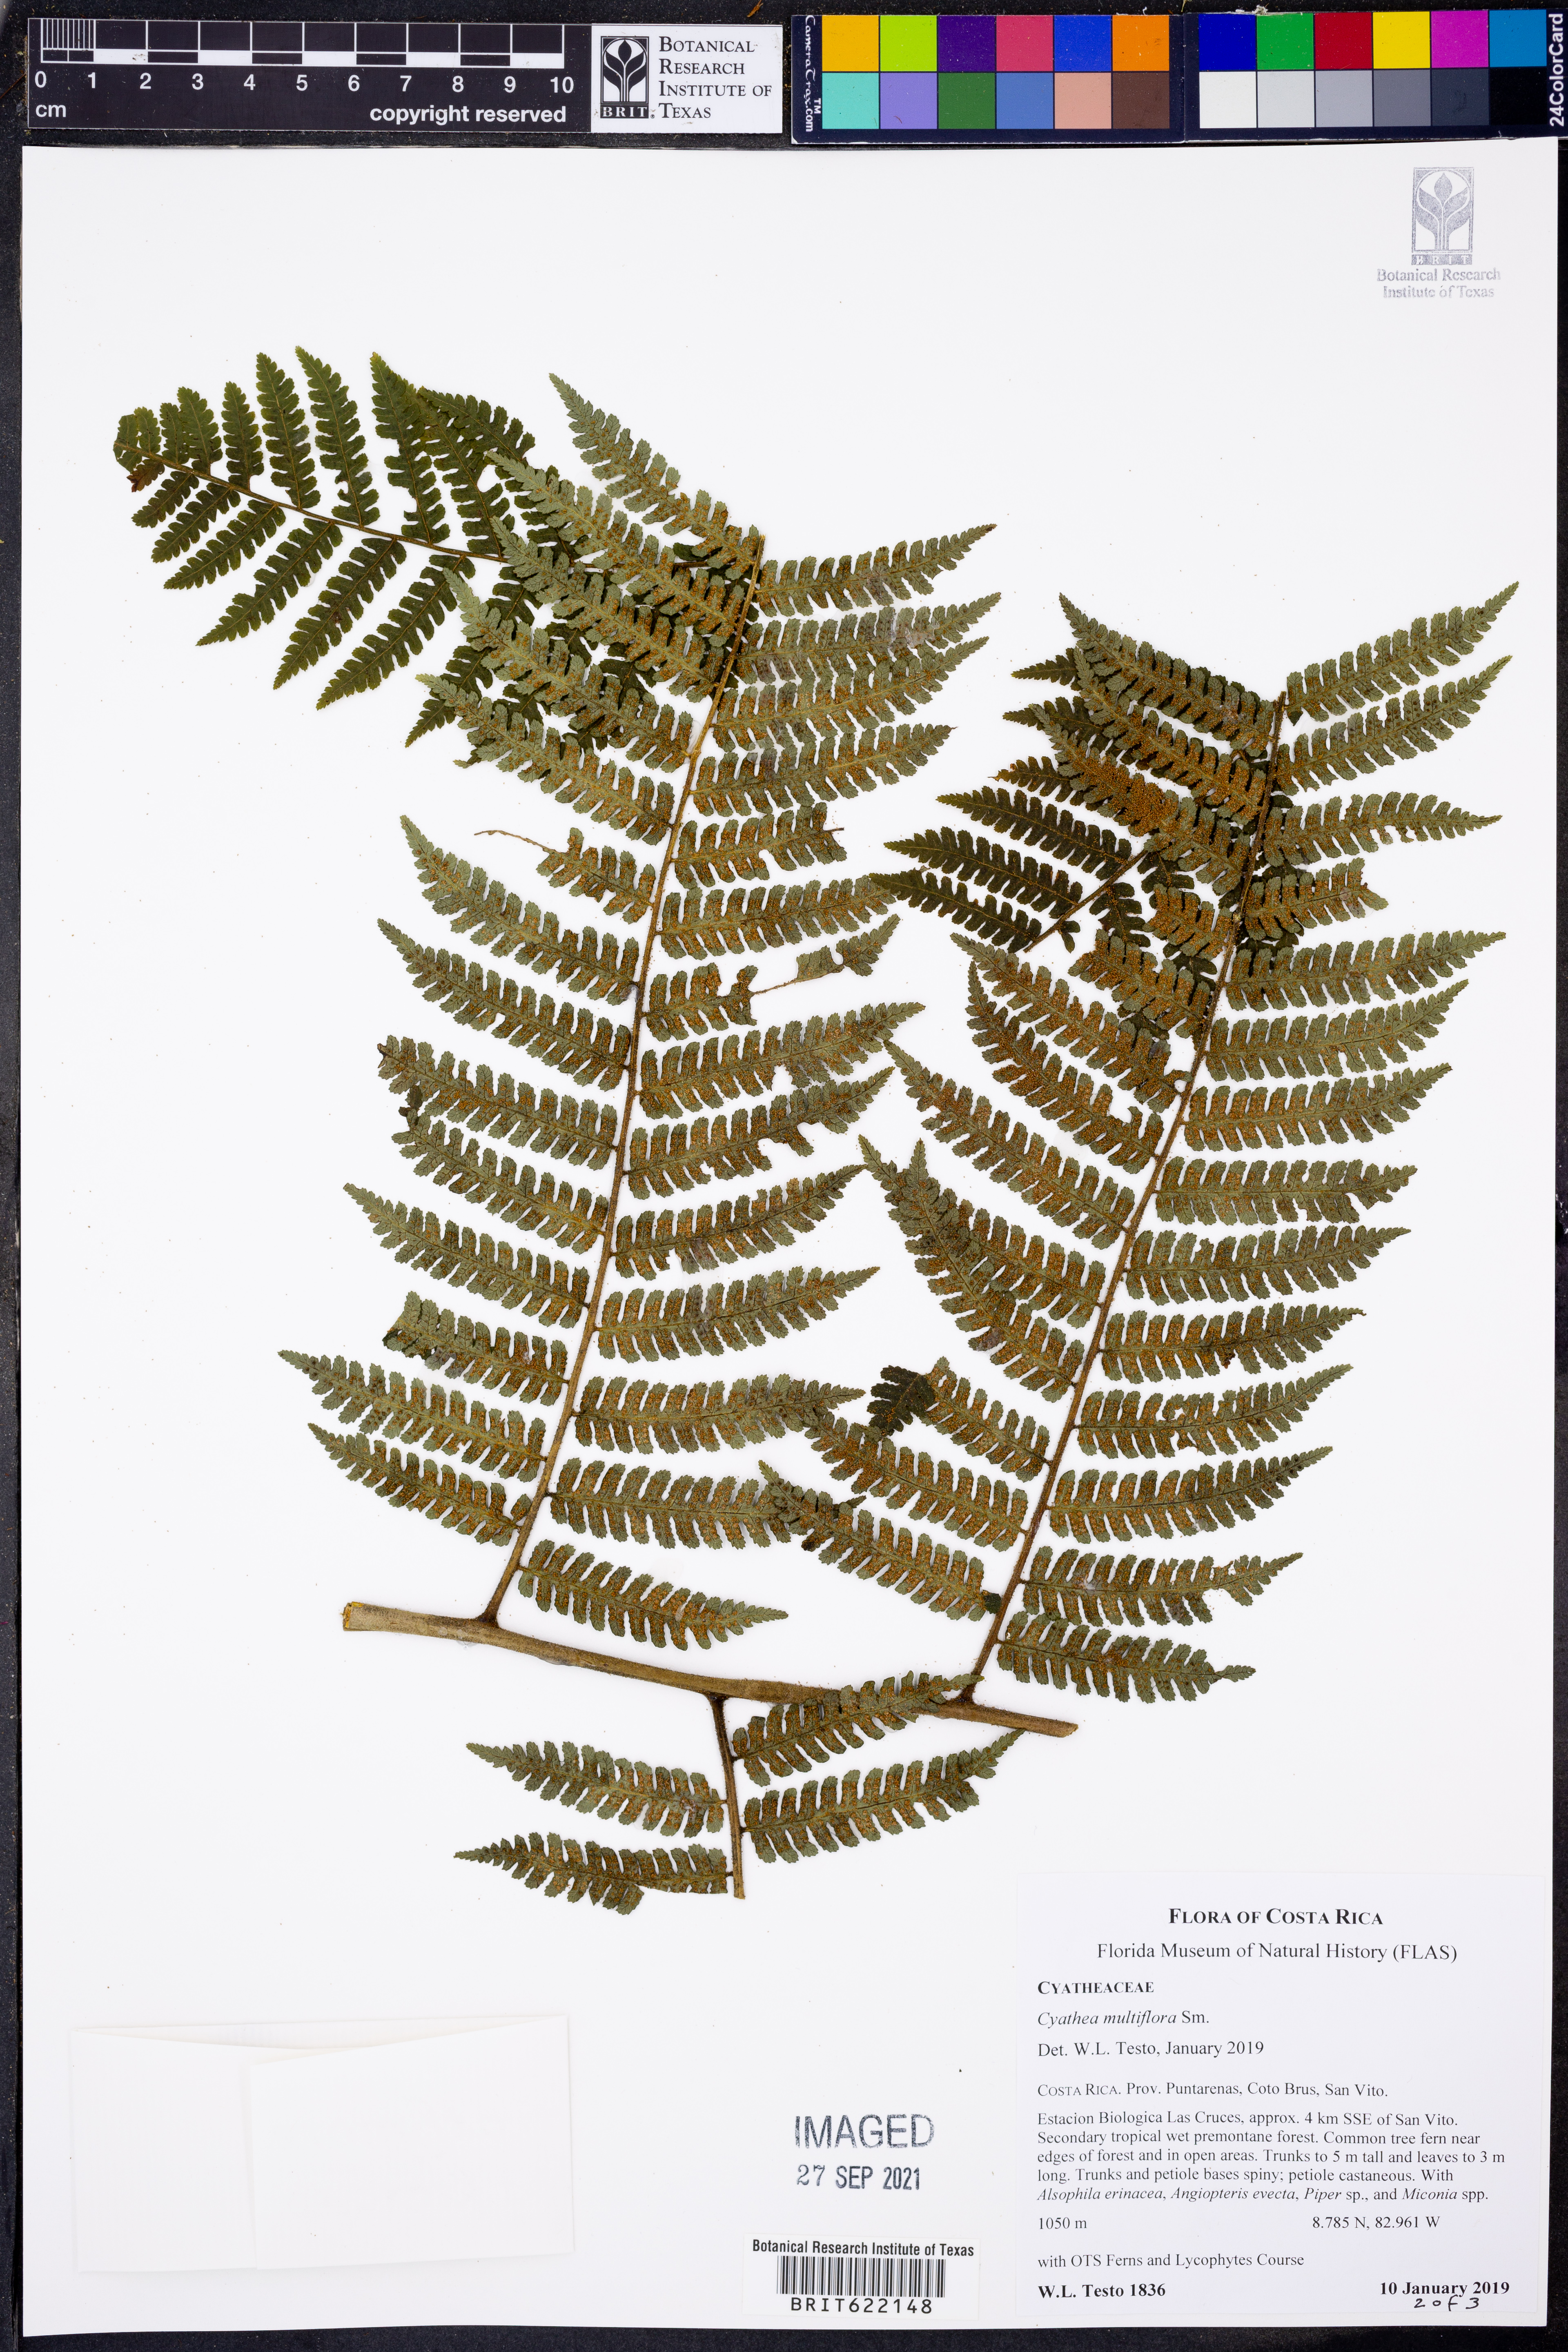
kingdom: Plantae
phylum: Tracheophyta
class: Polypodiopsida
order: Cyatheales
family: Cyatheaceae
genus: Cyathea
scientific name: Cyathea multiflora
